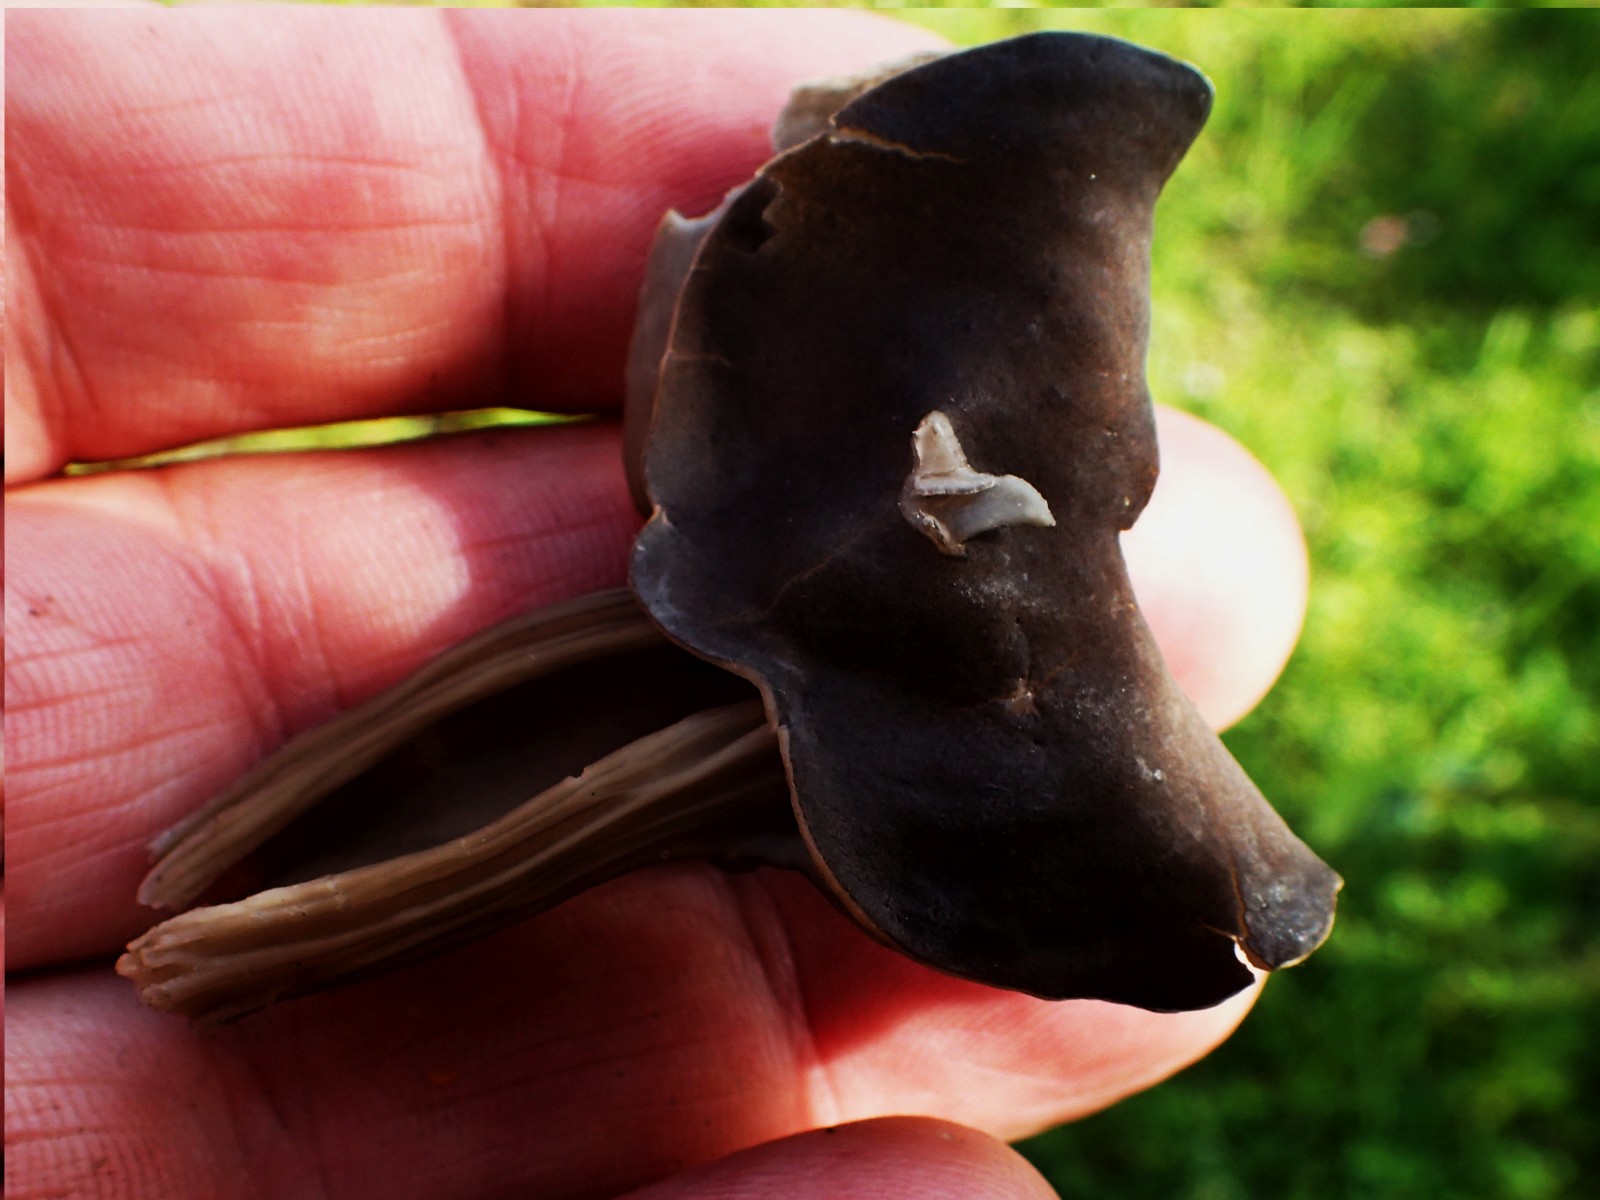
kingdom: Fungi
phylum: Ascomycota
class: Pezizomycetes
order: Pezizales
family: Helvellaceae
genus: Helvella
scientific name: Helvella lacunosa
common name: grubet foldhat
